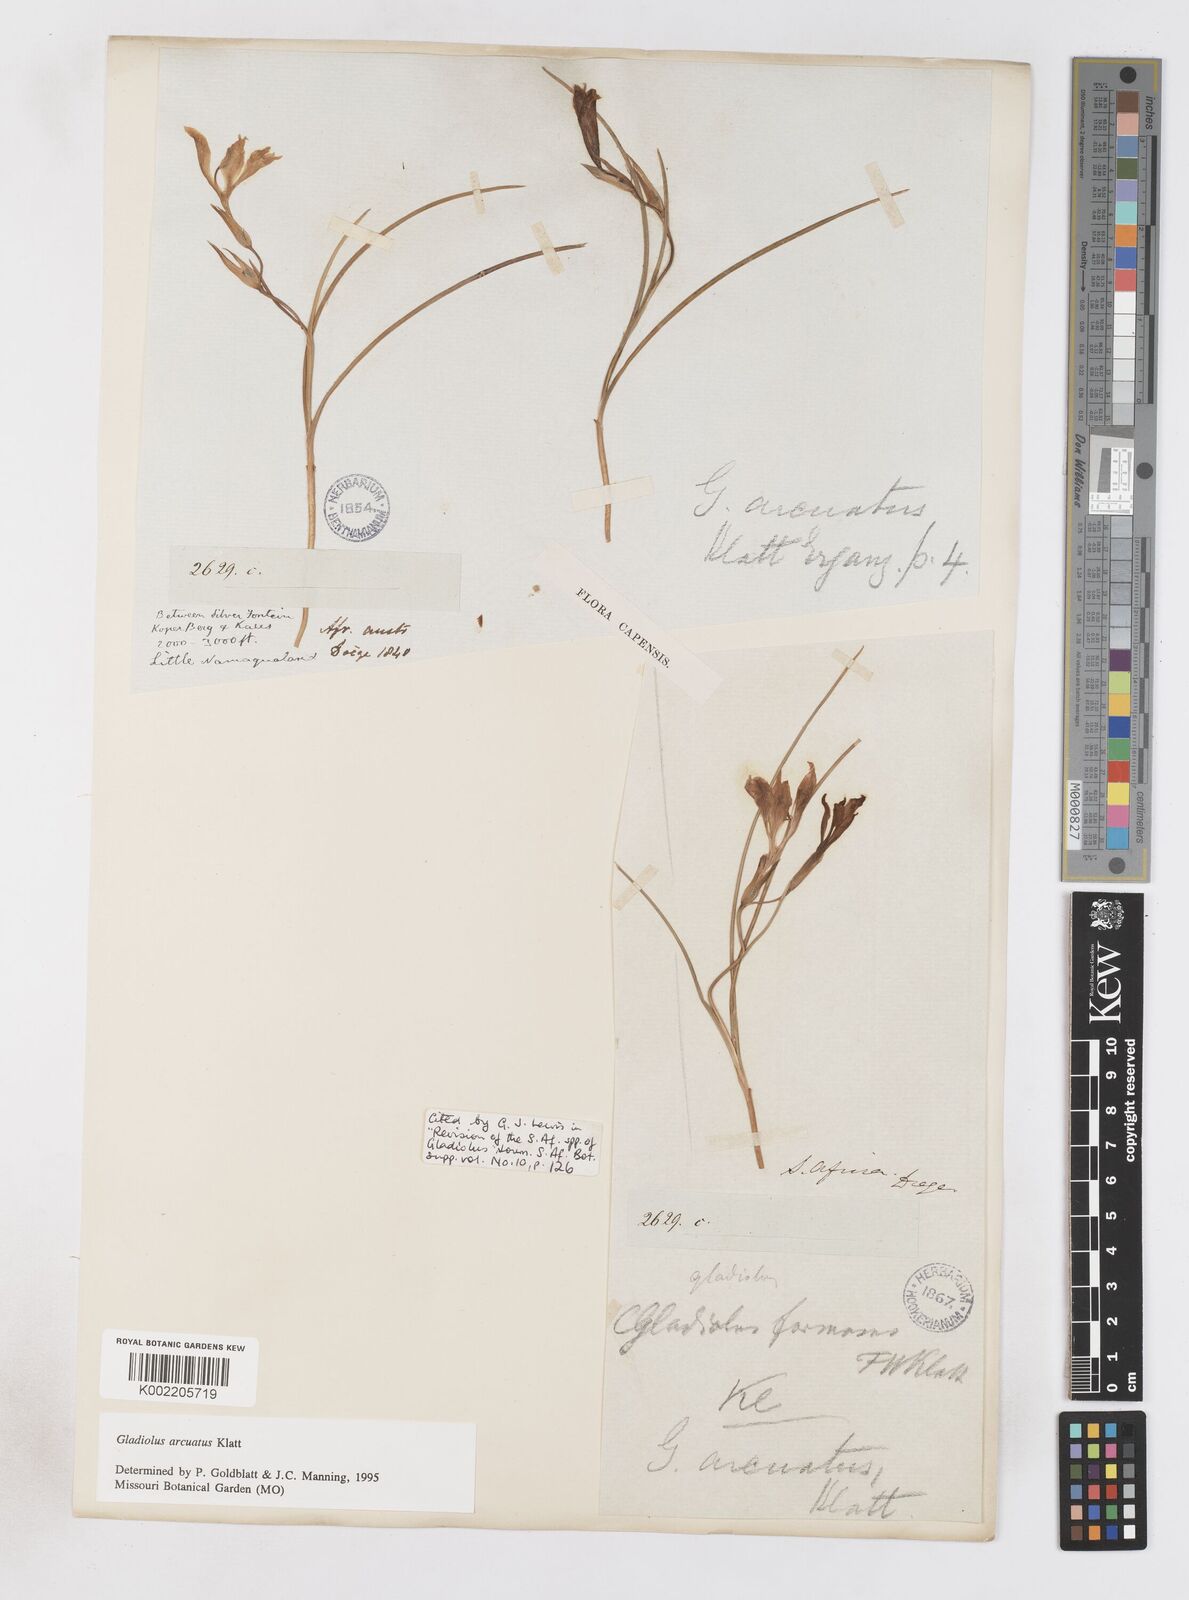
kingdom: Plantae
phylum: Tracheophyta
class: Liliopsida
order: Asparagales
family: Iridaceae
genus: Gladiolus
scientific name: Gladiolus arcuatus
